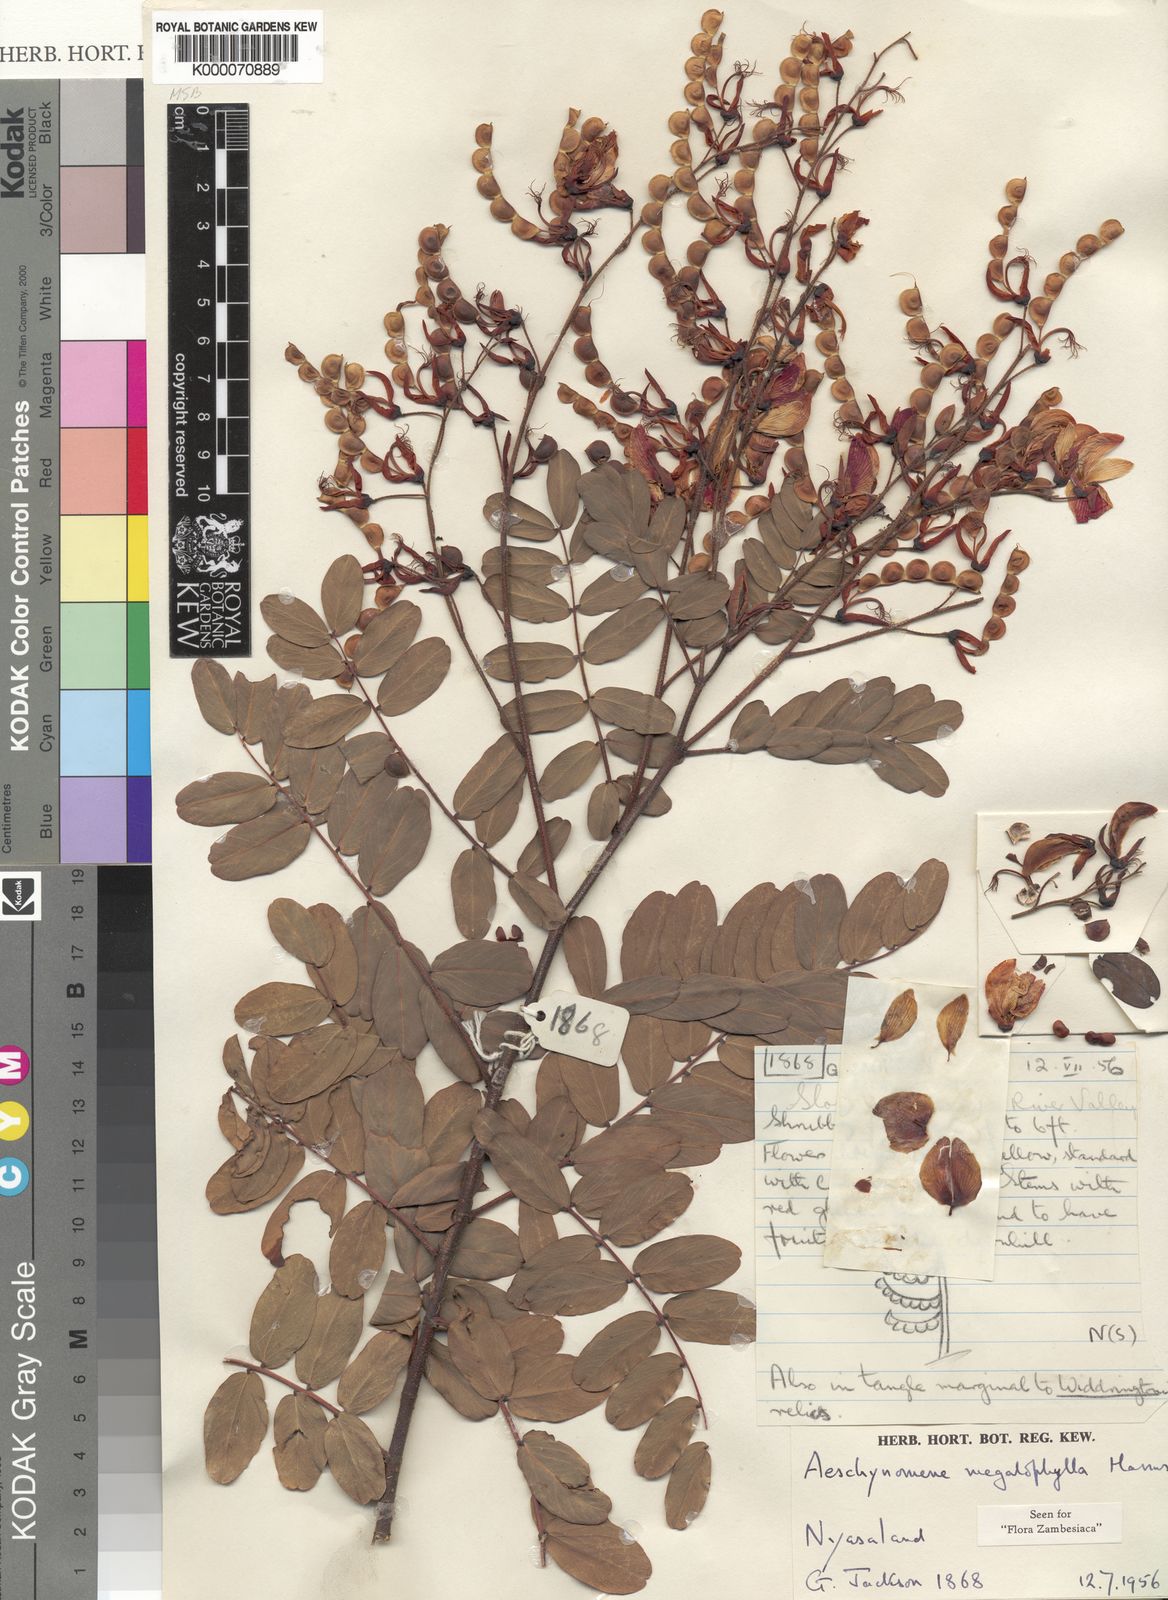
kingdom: Plantae
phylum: Tracheophyta
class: Magnoliopsida
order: Fabales
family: Fabaceae
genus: Aeschynomene
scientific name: Aeschynomene megalophylla
